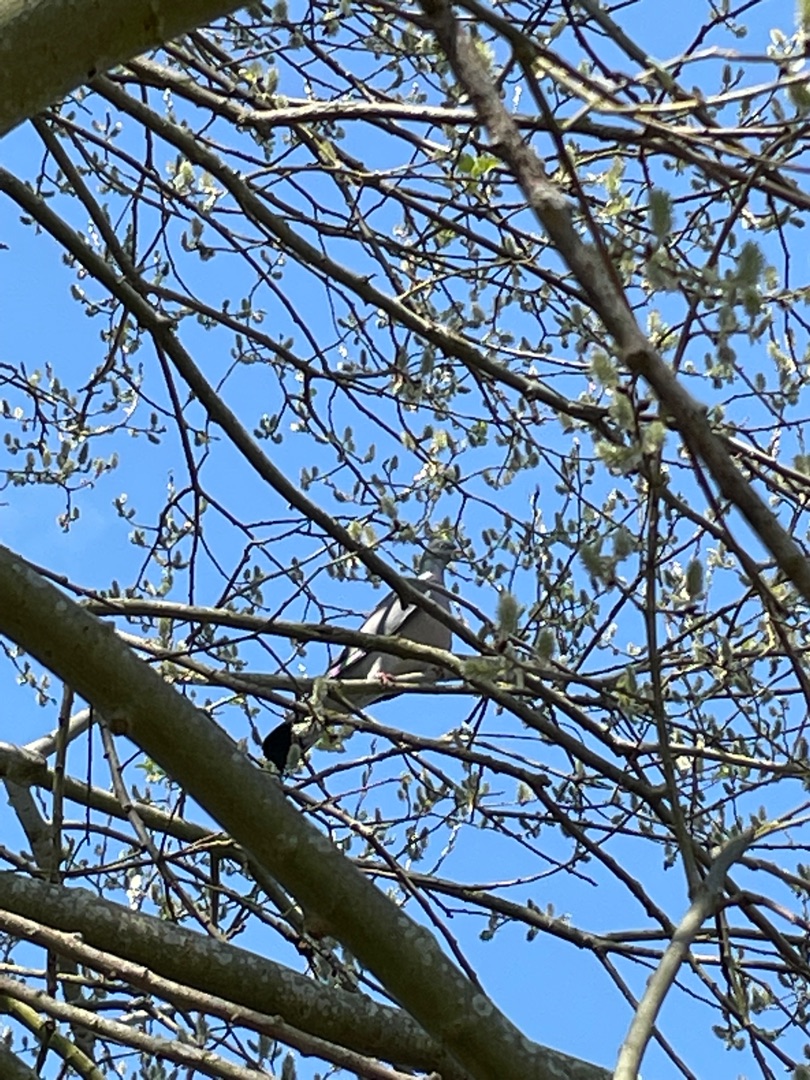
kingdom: Animalia
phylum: Chordata
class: Aves
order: Columbiformes
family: Columbidae
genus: Columba
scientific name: Columba palumbus
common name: Ringdue
